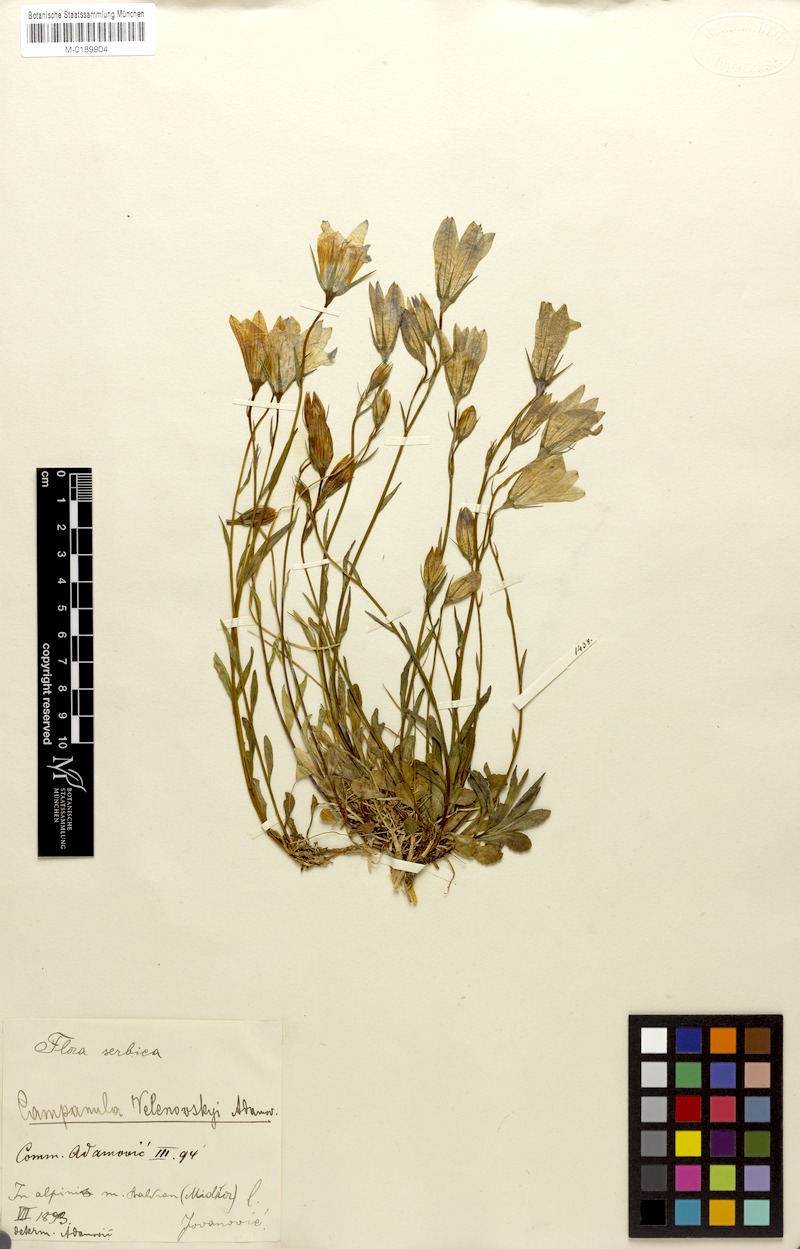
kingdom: Plantae
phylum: Tracheophyta
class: Magnoliopsida
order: Asterales
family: Campanulaceae
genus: Campanula
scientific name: Campanula patula
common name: Spreading bellflower
